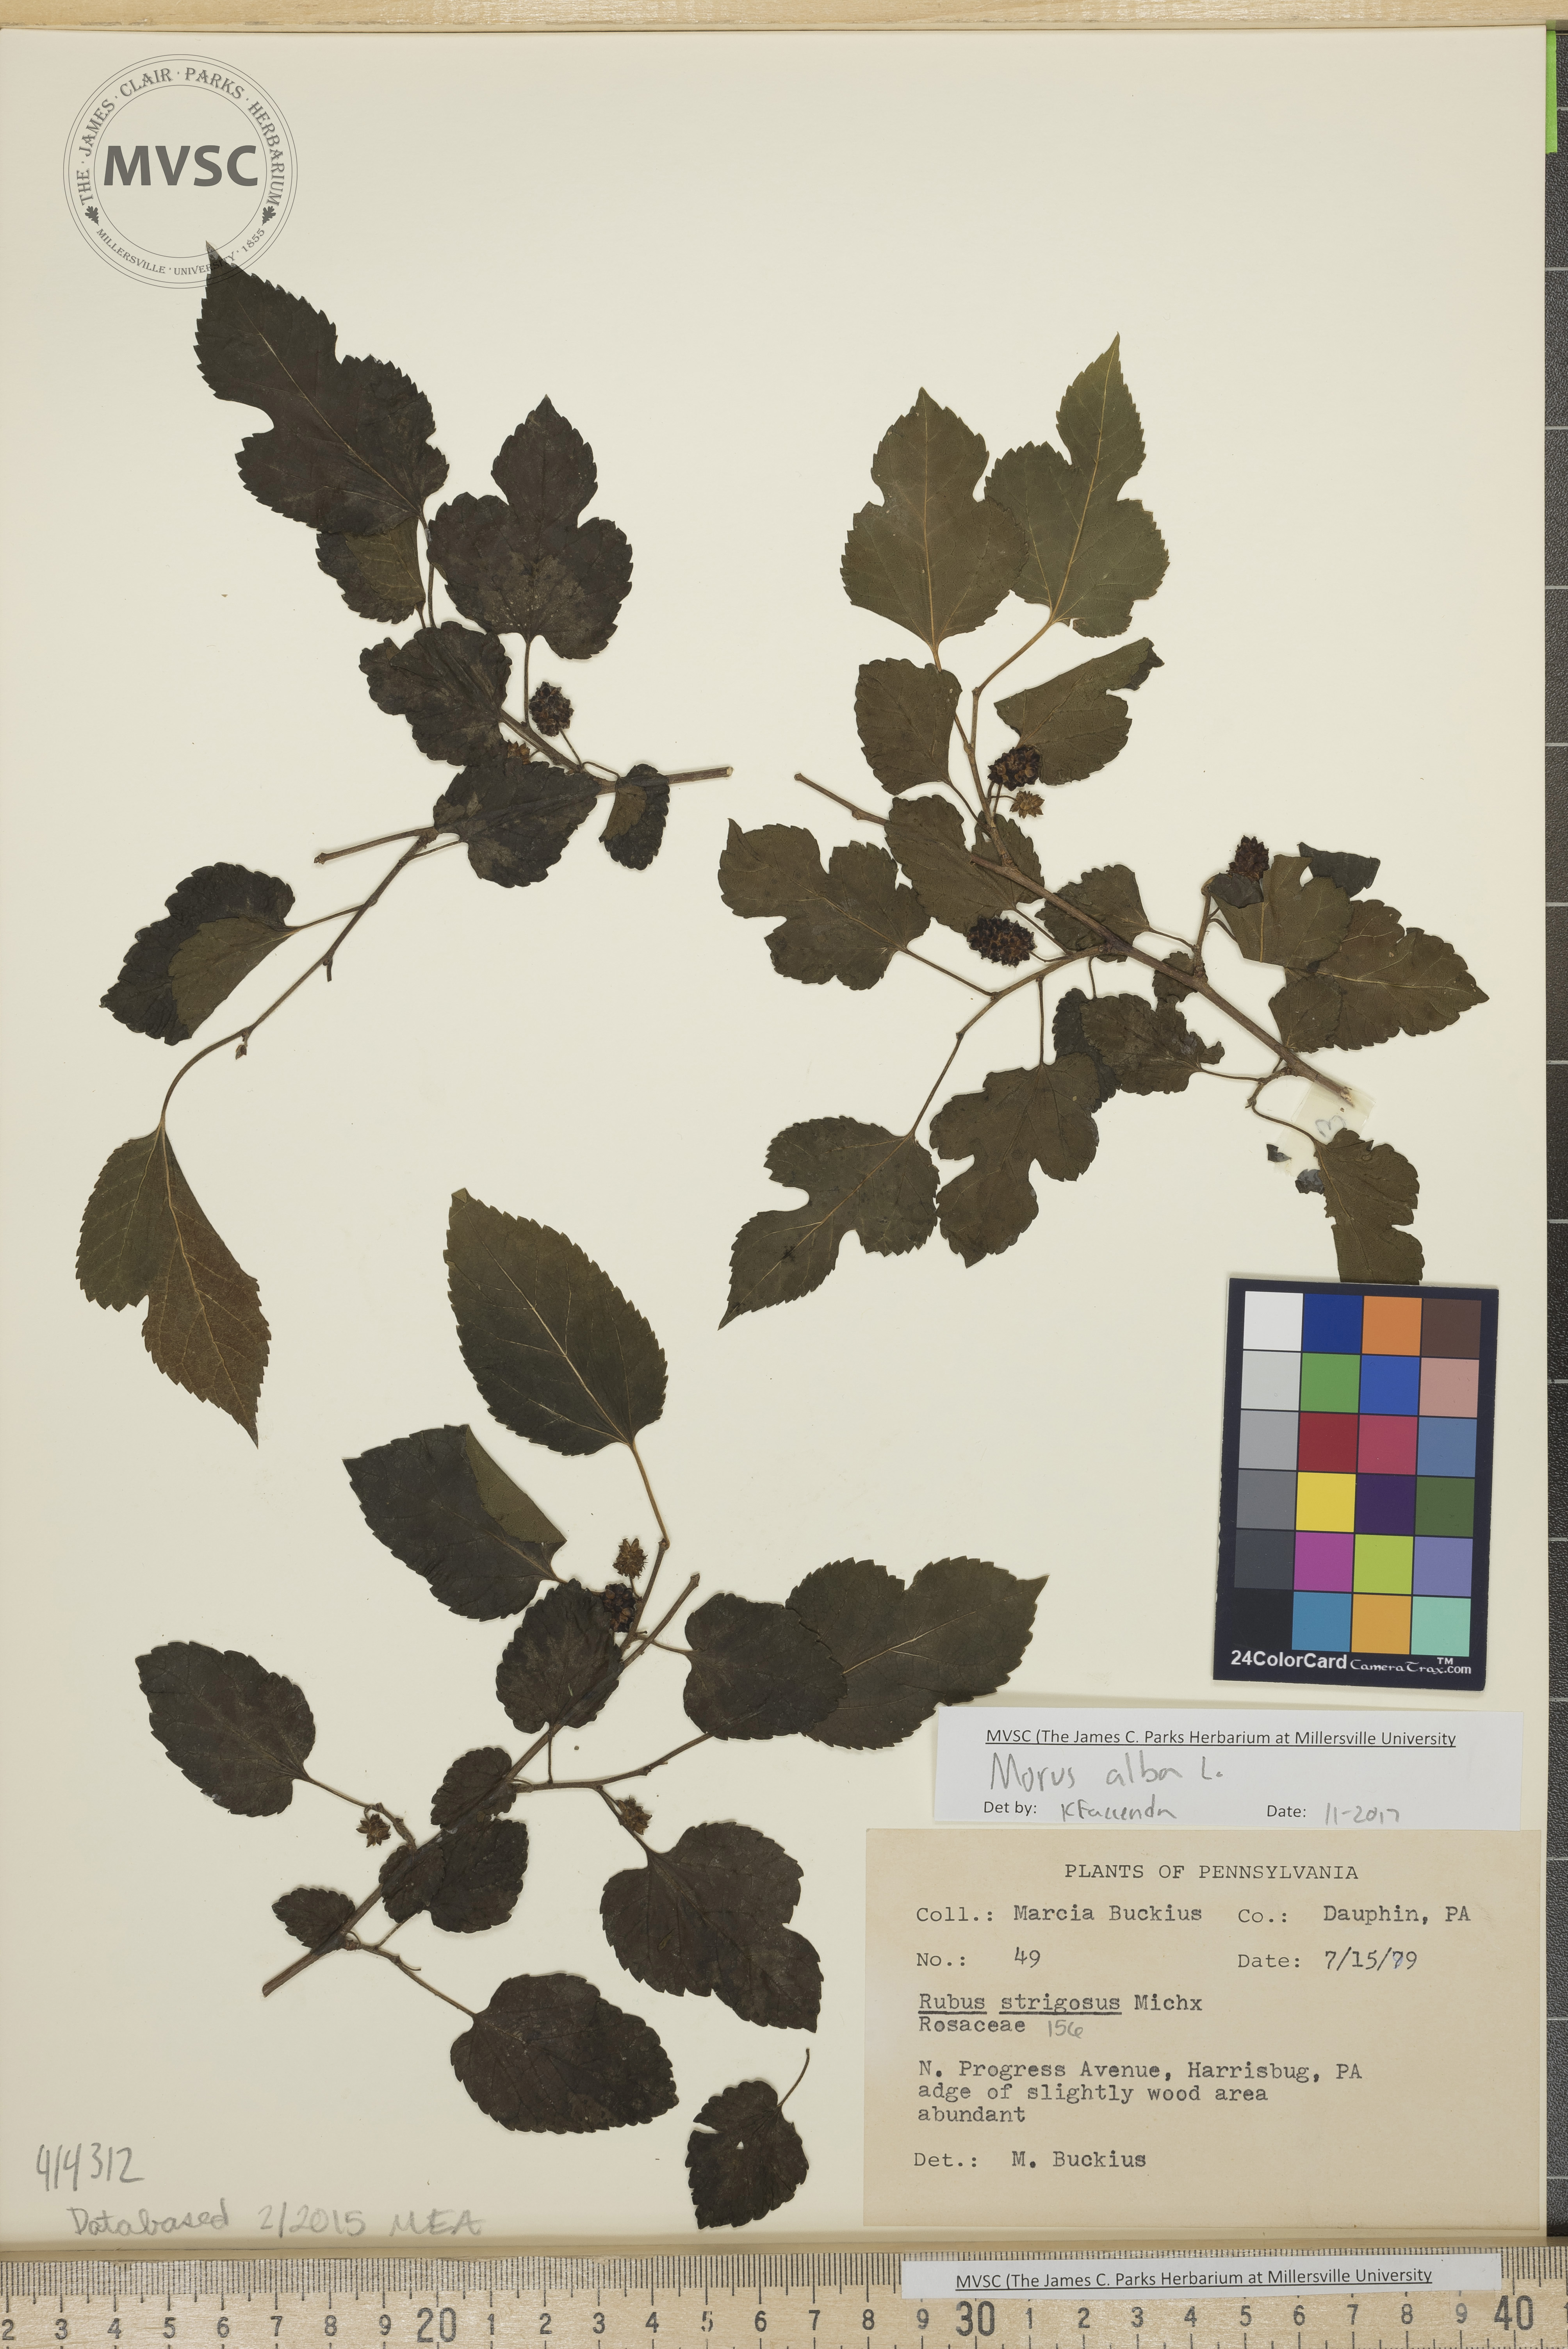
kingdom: Plantae
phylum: Tracheophyta
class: Magnoliopsida
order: Rosales
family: Moraceae
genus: Morus
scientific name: Morus alba
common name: White mulberry
